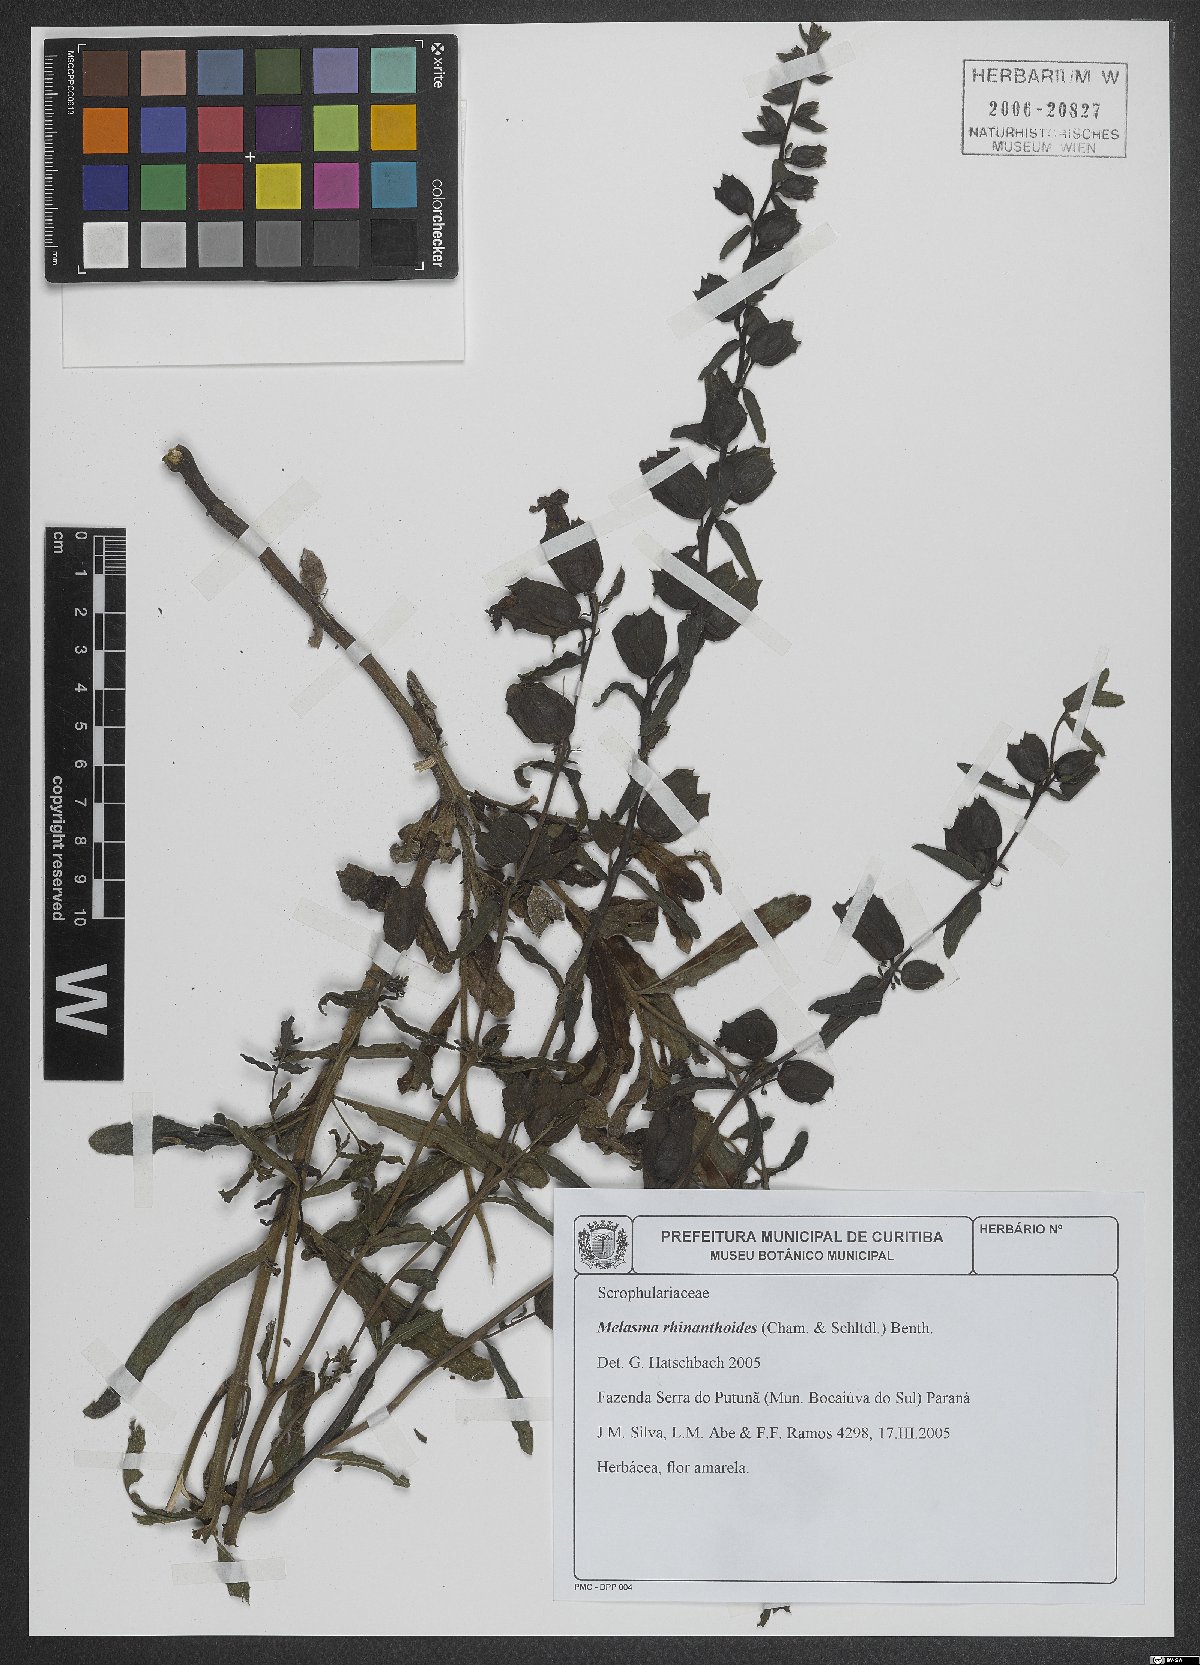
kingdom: Plantae
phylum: Tracheophyta
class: Magnoliopsida
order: Lamiales
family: Orobanchaceae
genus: Melasma
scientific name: Melasma rhinanthoides
